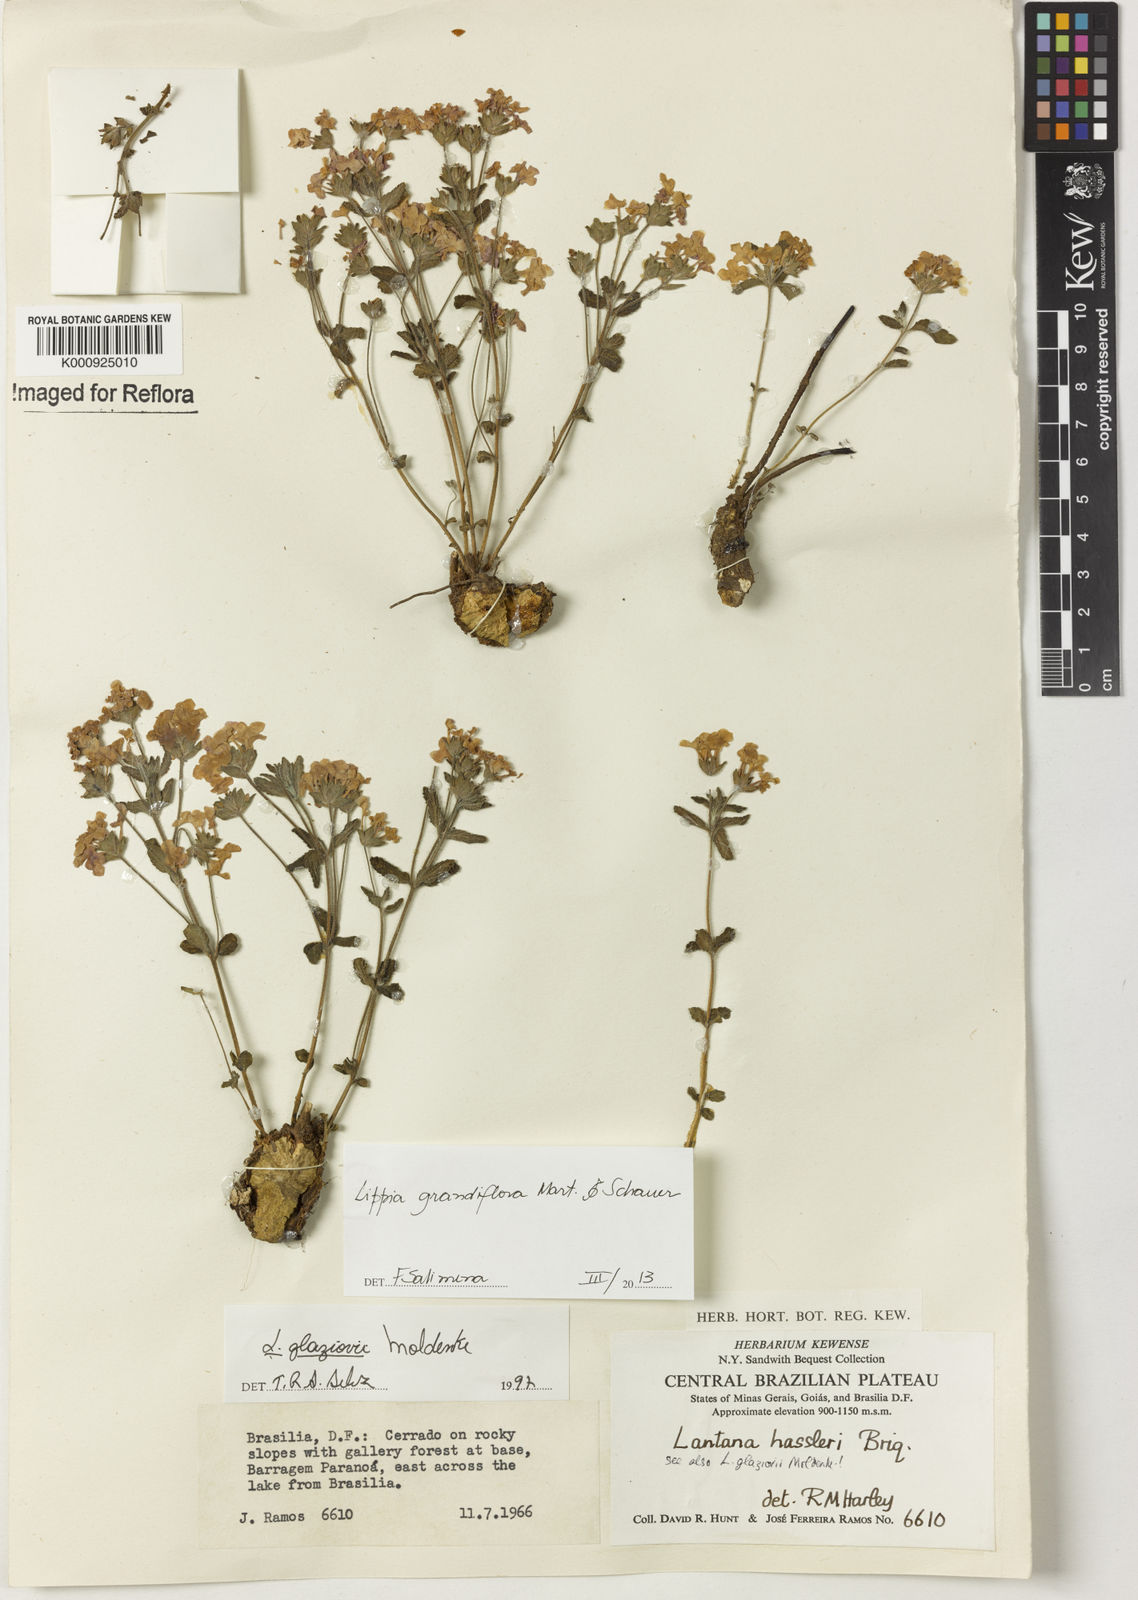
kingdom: Plantae
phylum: Tracheophyta
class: Magnoliopsida
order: Lamiales
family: Verbenaceae
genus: Lippia
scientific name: Lippia grandiflora
